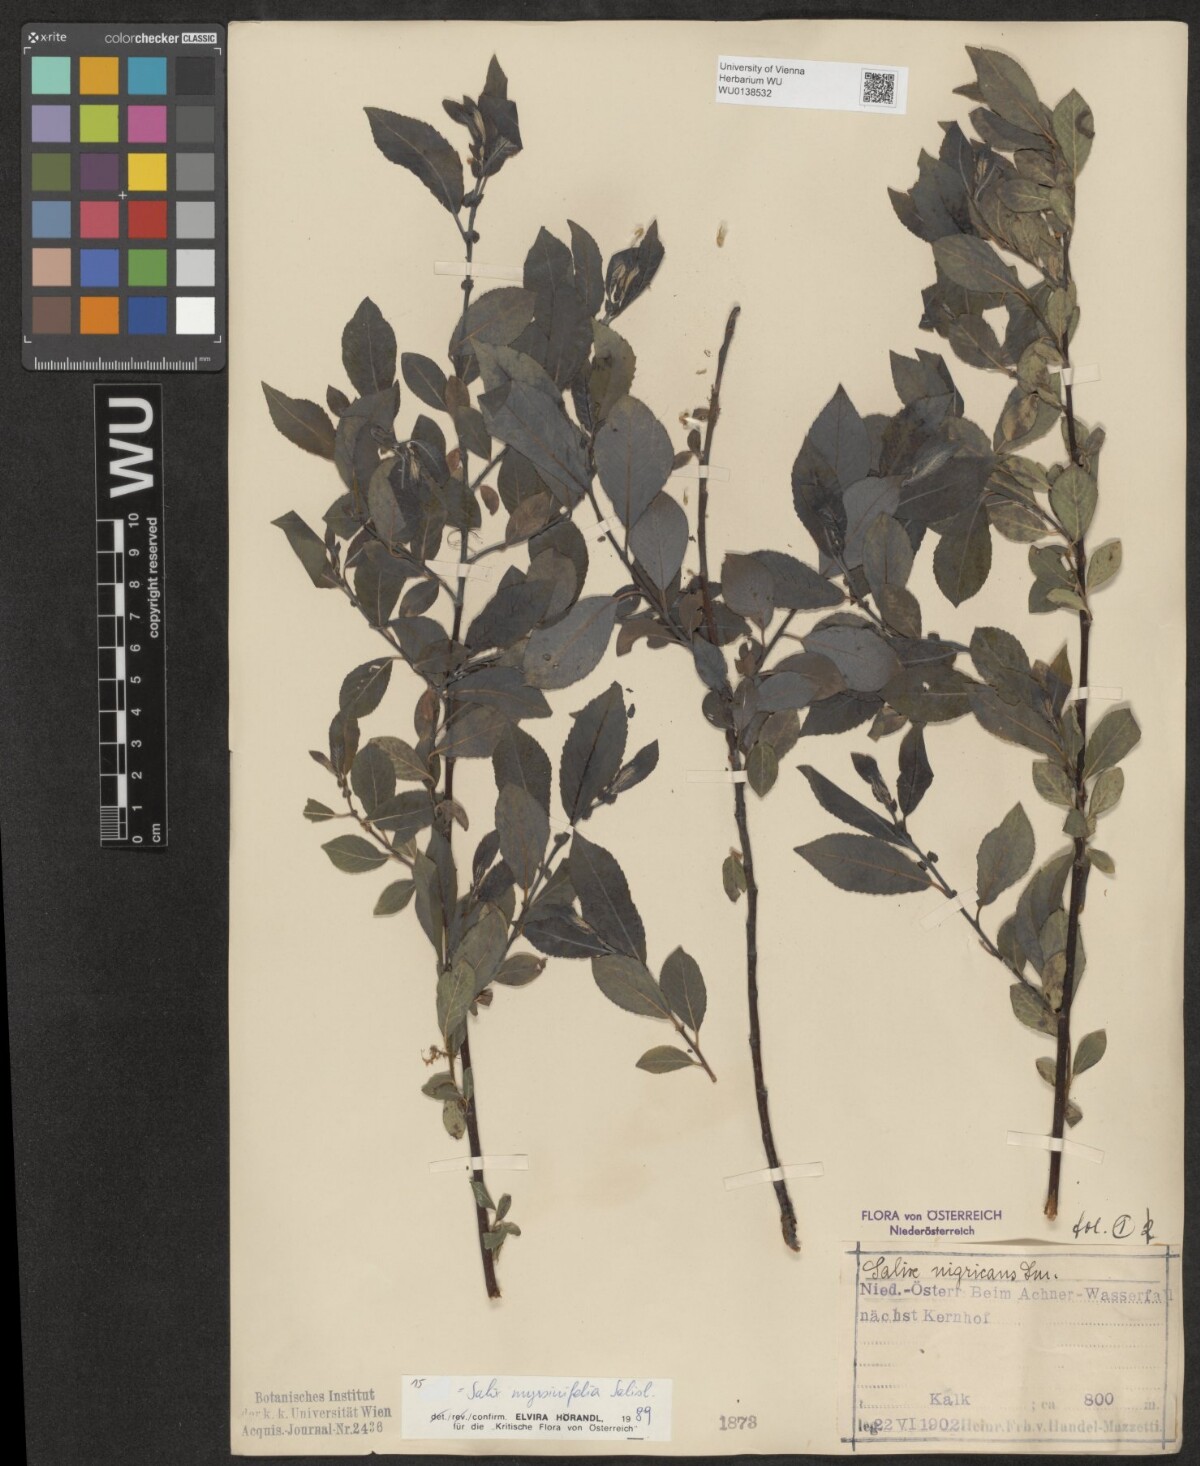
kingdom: Plantae
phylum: Tracheophyta
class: Magnoliopsida
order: Malpighiales
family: Salicaceae
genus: Salix
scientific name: Salix myrsinifolia
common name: Dark-leaved willow
